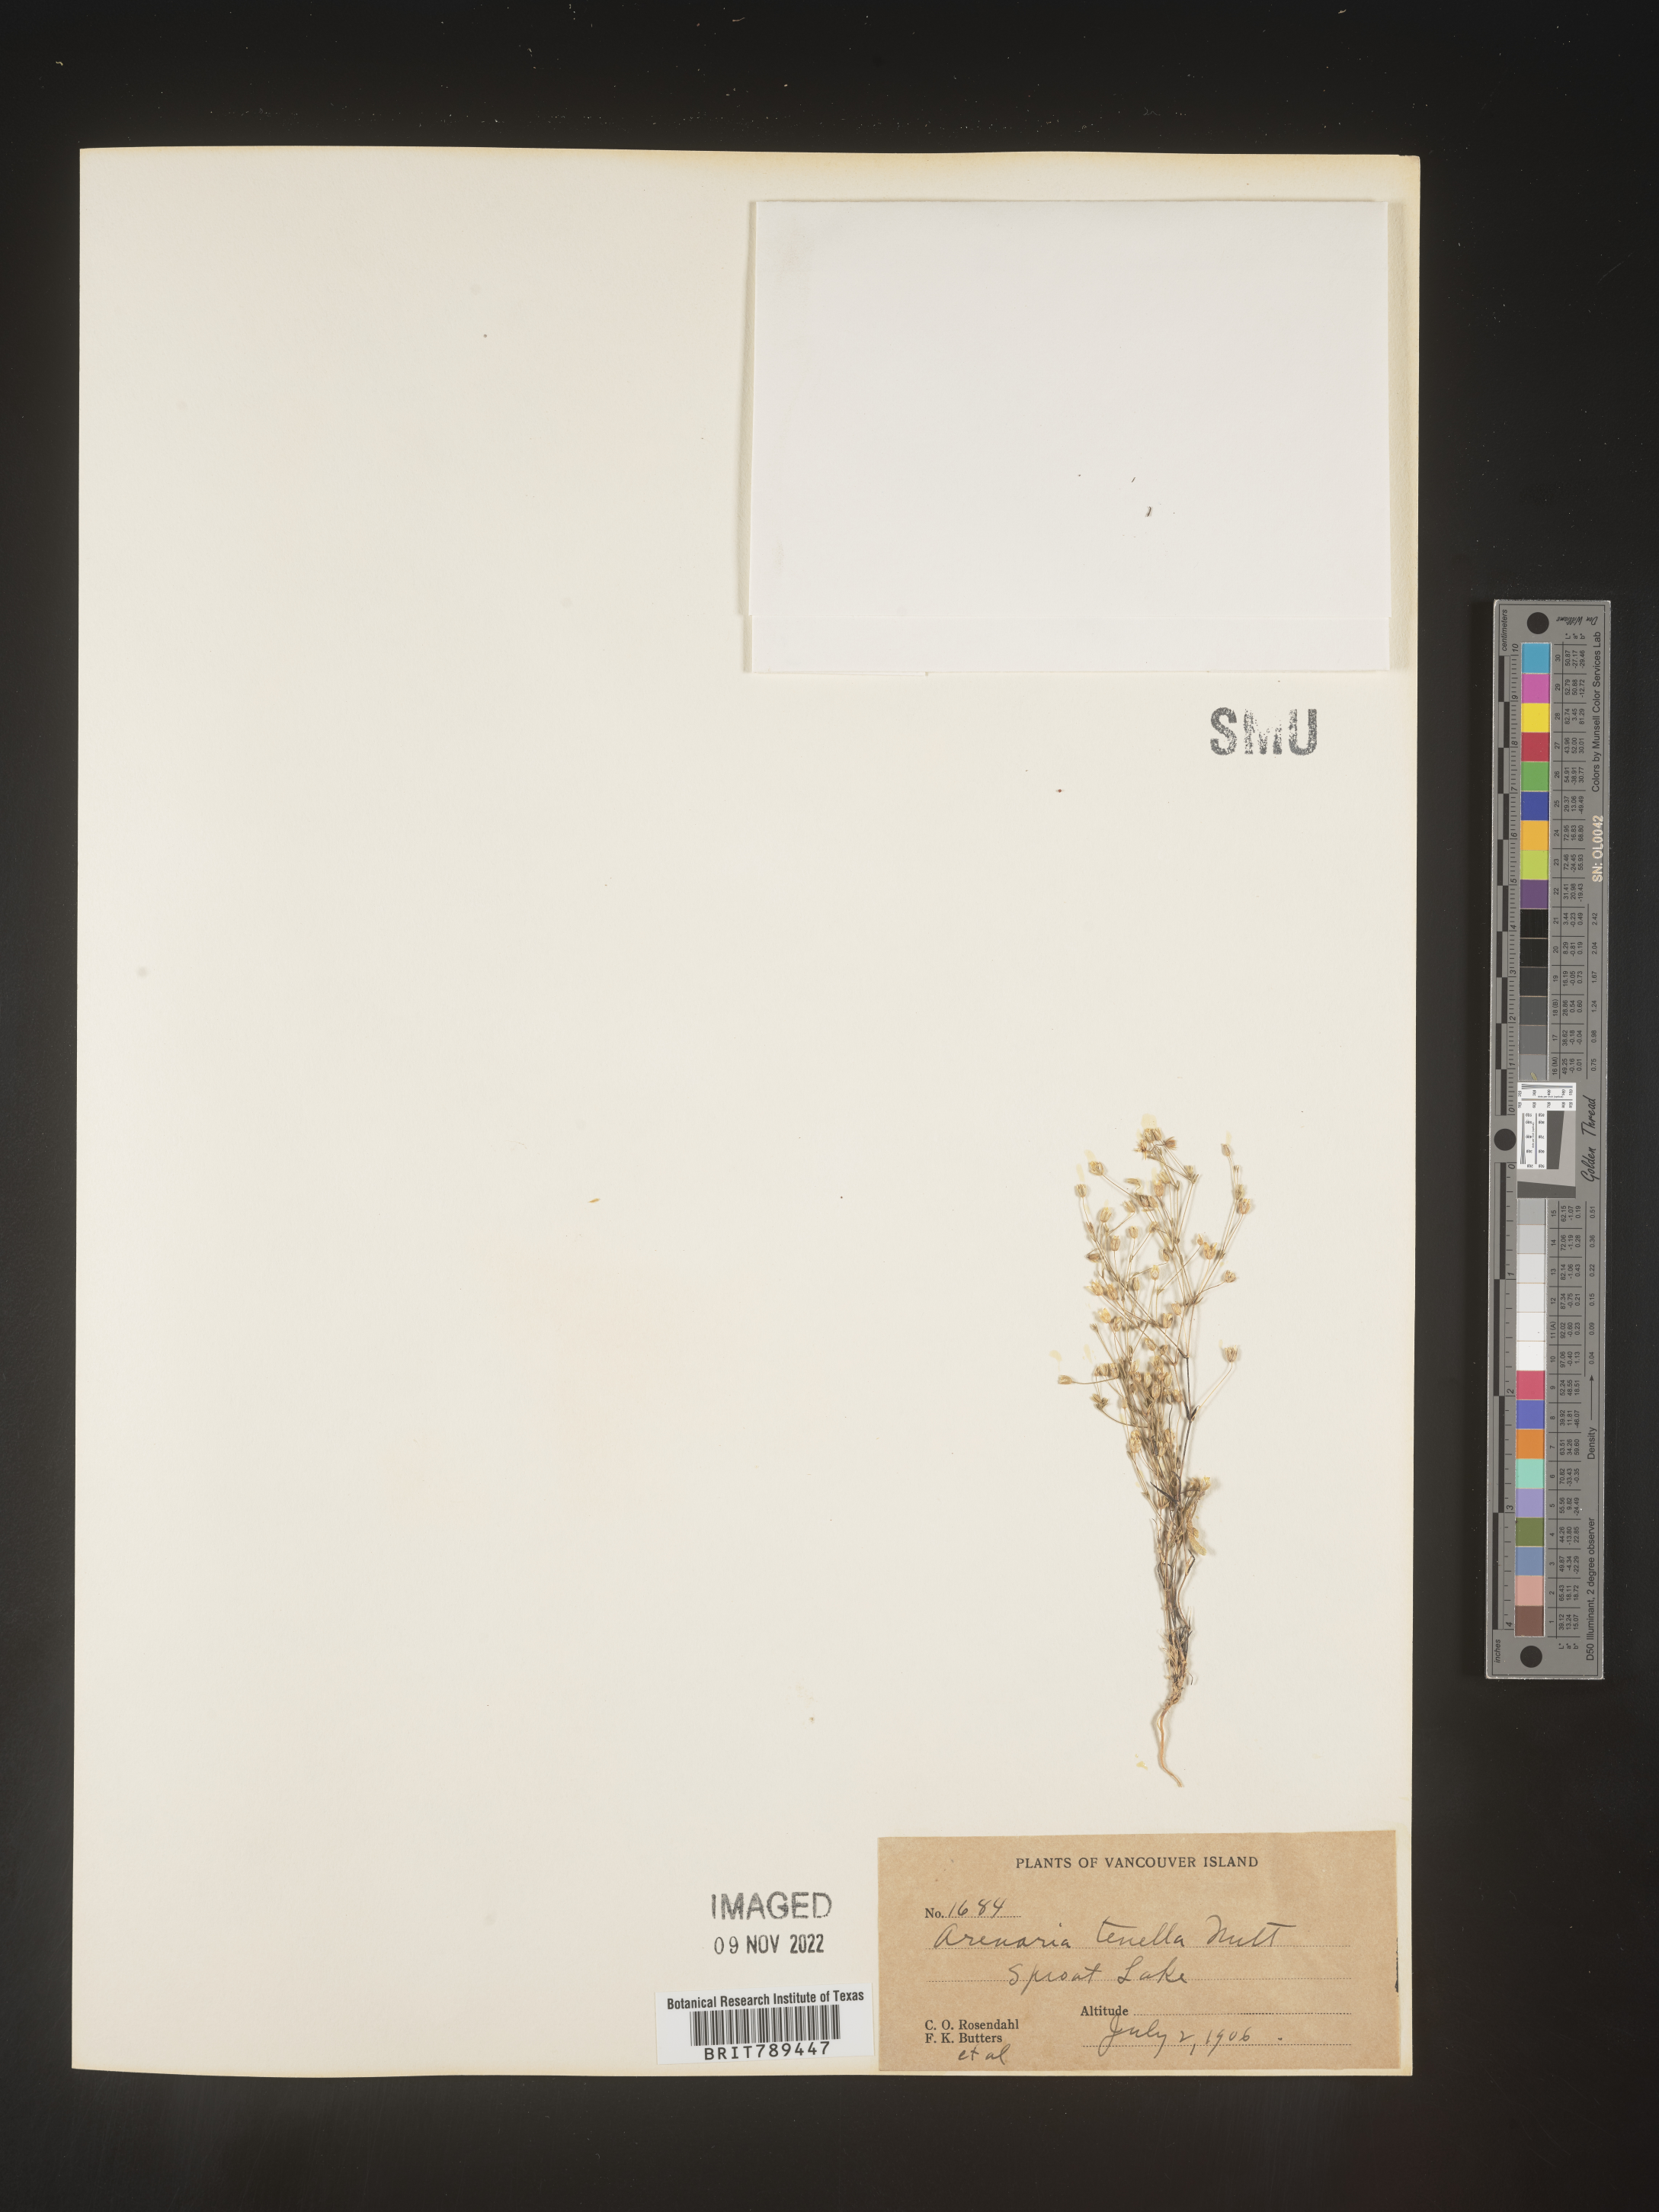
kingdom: Plantae
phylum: Tracheophyta
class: Magnoliopsida
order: Caryophyllales
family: Caryophyllaceae
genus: Arenaria
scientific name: Arenaria
